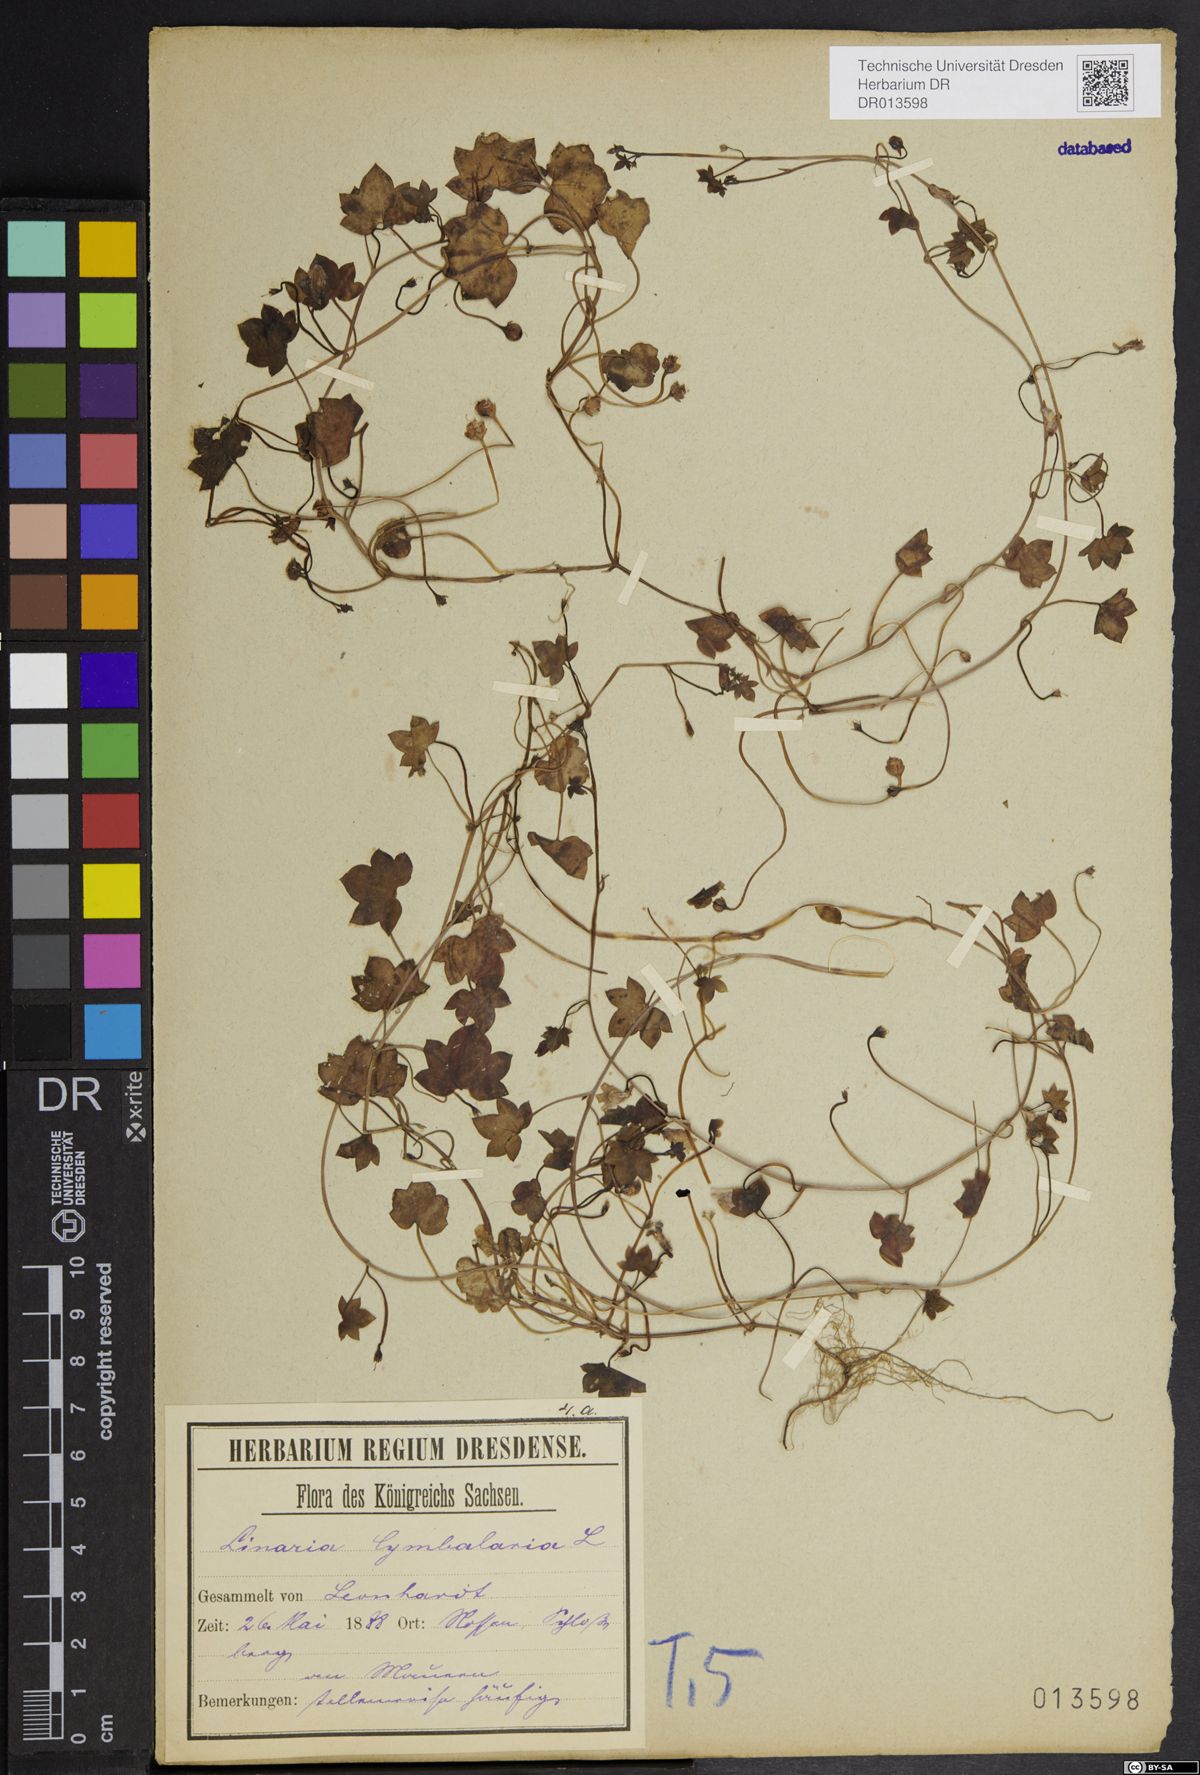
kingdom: Plantae
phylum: Tracheophyta
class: Magnoliopsida
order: Lamiales
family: Plantaginaceae
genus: Cymbalaria
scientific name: Cymbalaria muralis
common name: Ivy-leaved toadflax
